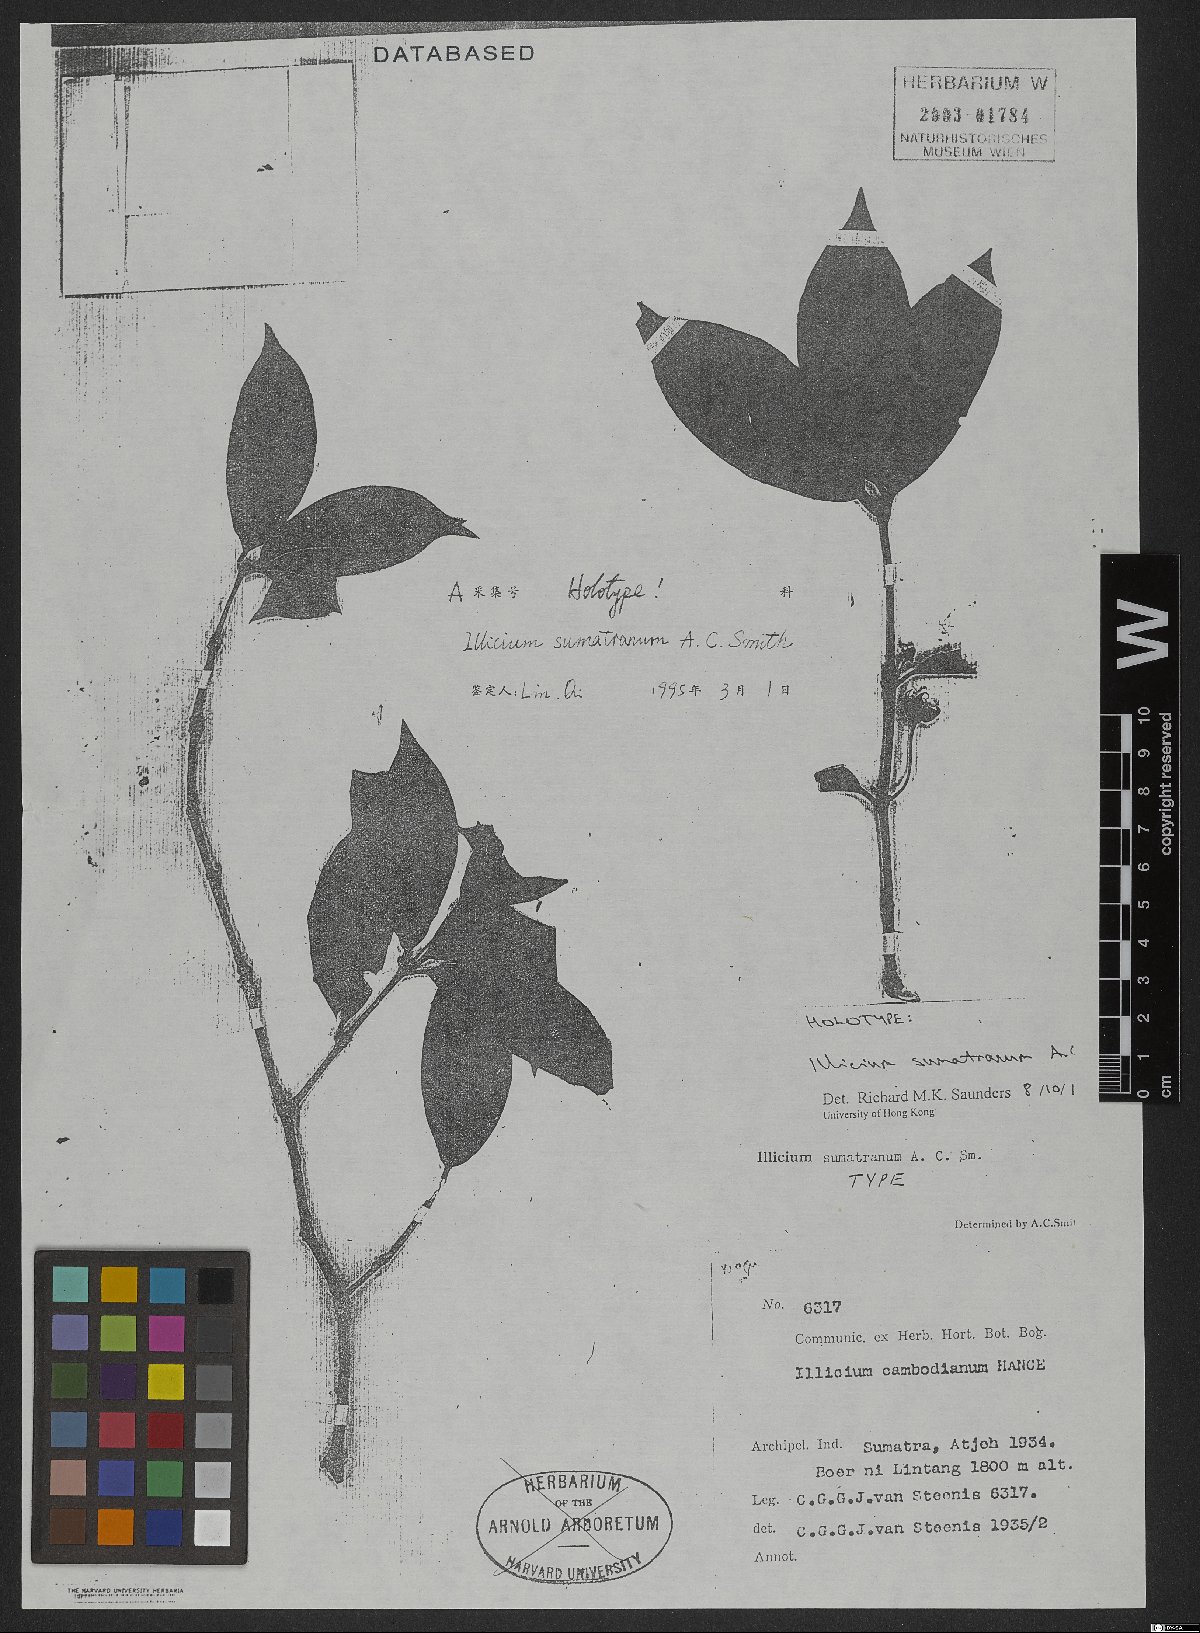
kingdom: Plantae
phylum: Tracheophyta
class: Magnoliopsida
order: Austrobaileyales
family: Schisandraceae
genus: Illicium
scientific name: Illicium sumatranum
